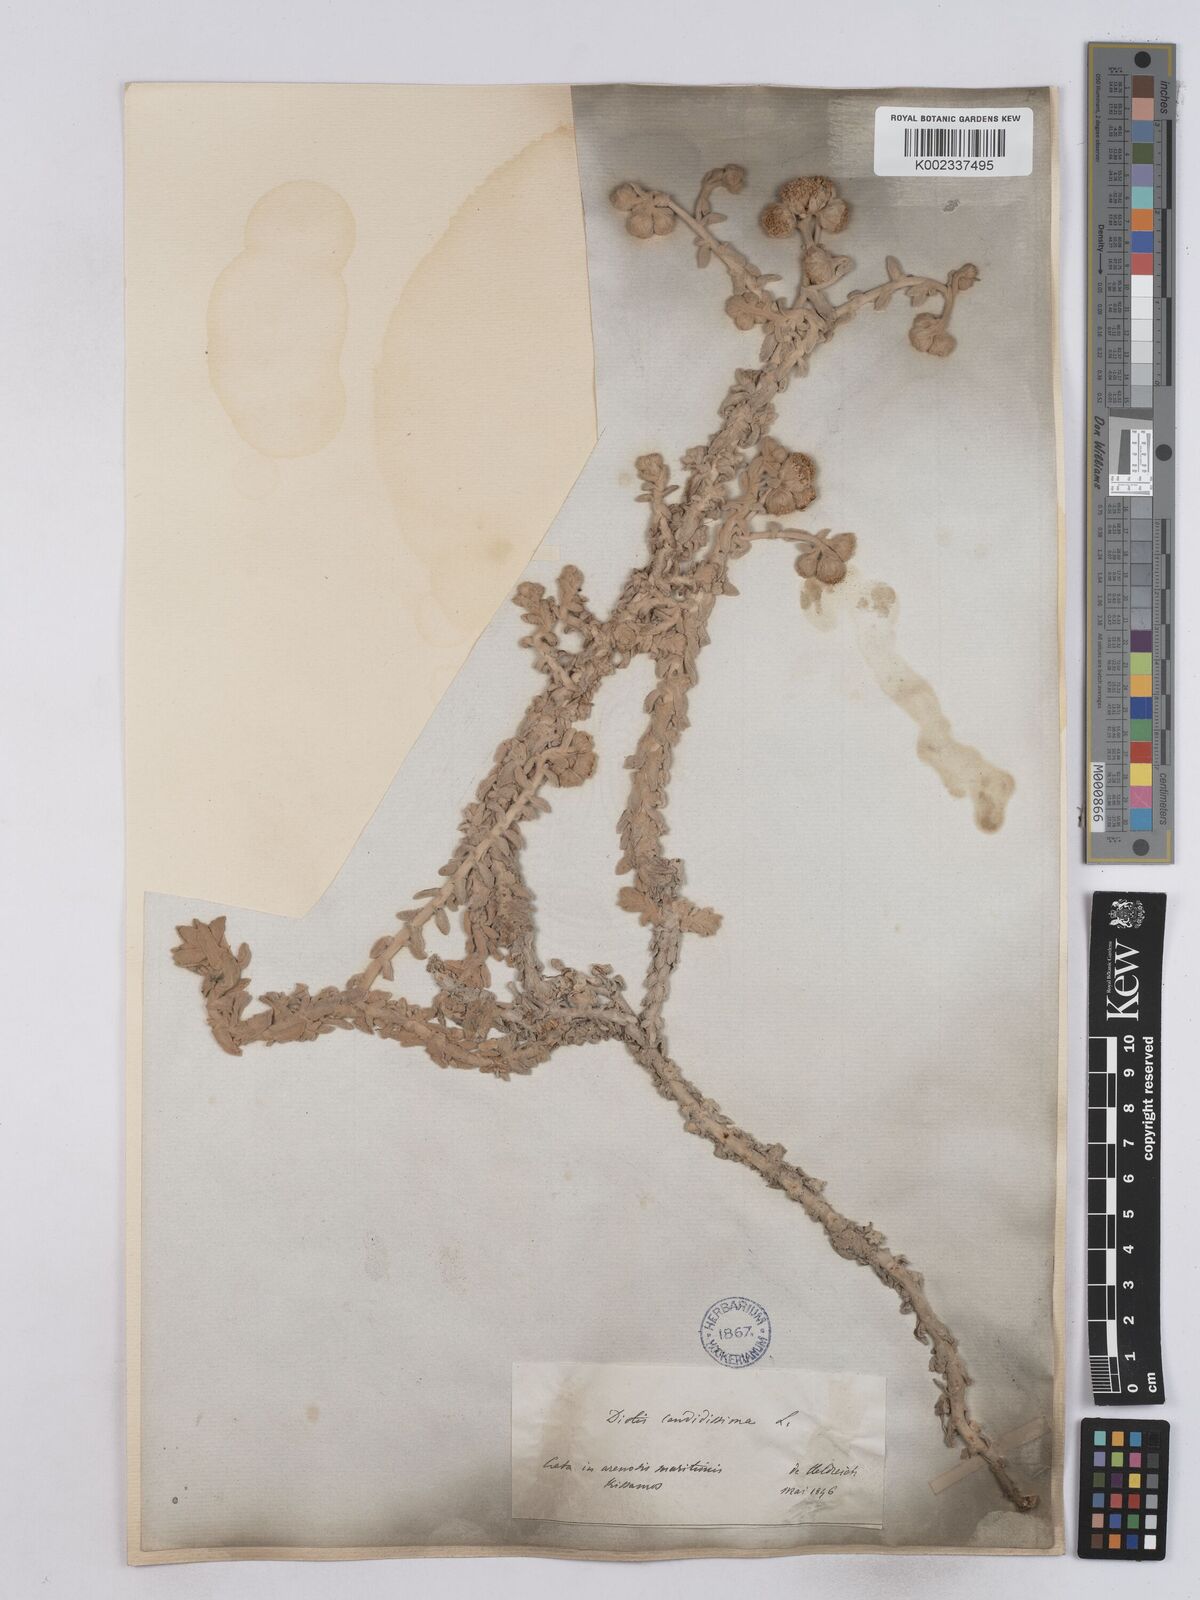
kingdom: Plantae
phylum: Tracheophyta
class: Magnoliopsida
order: Asterales
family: Asteraceae
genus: Achillea
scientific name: Achillea maritima
